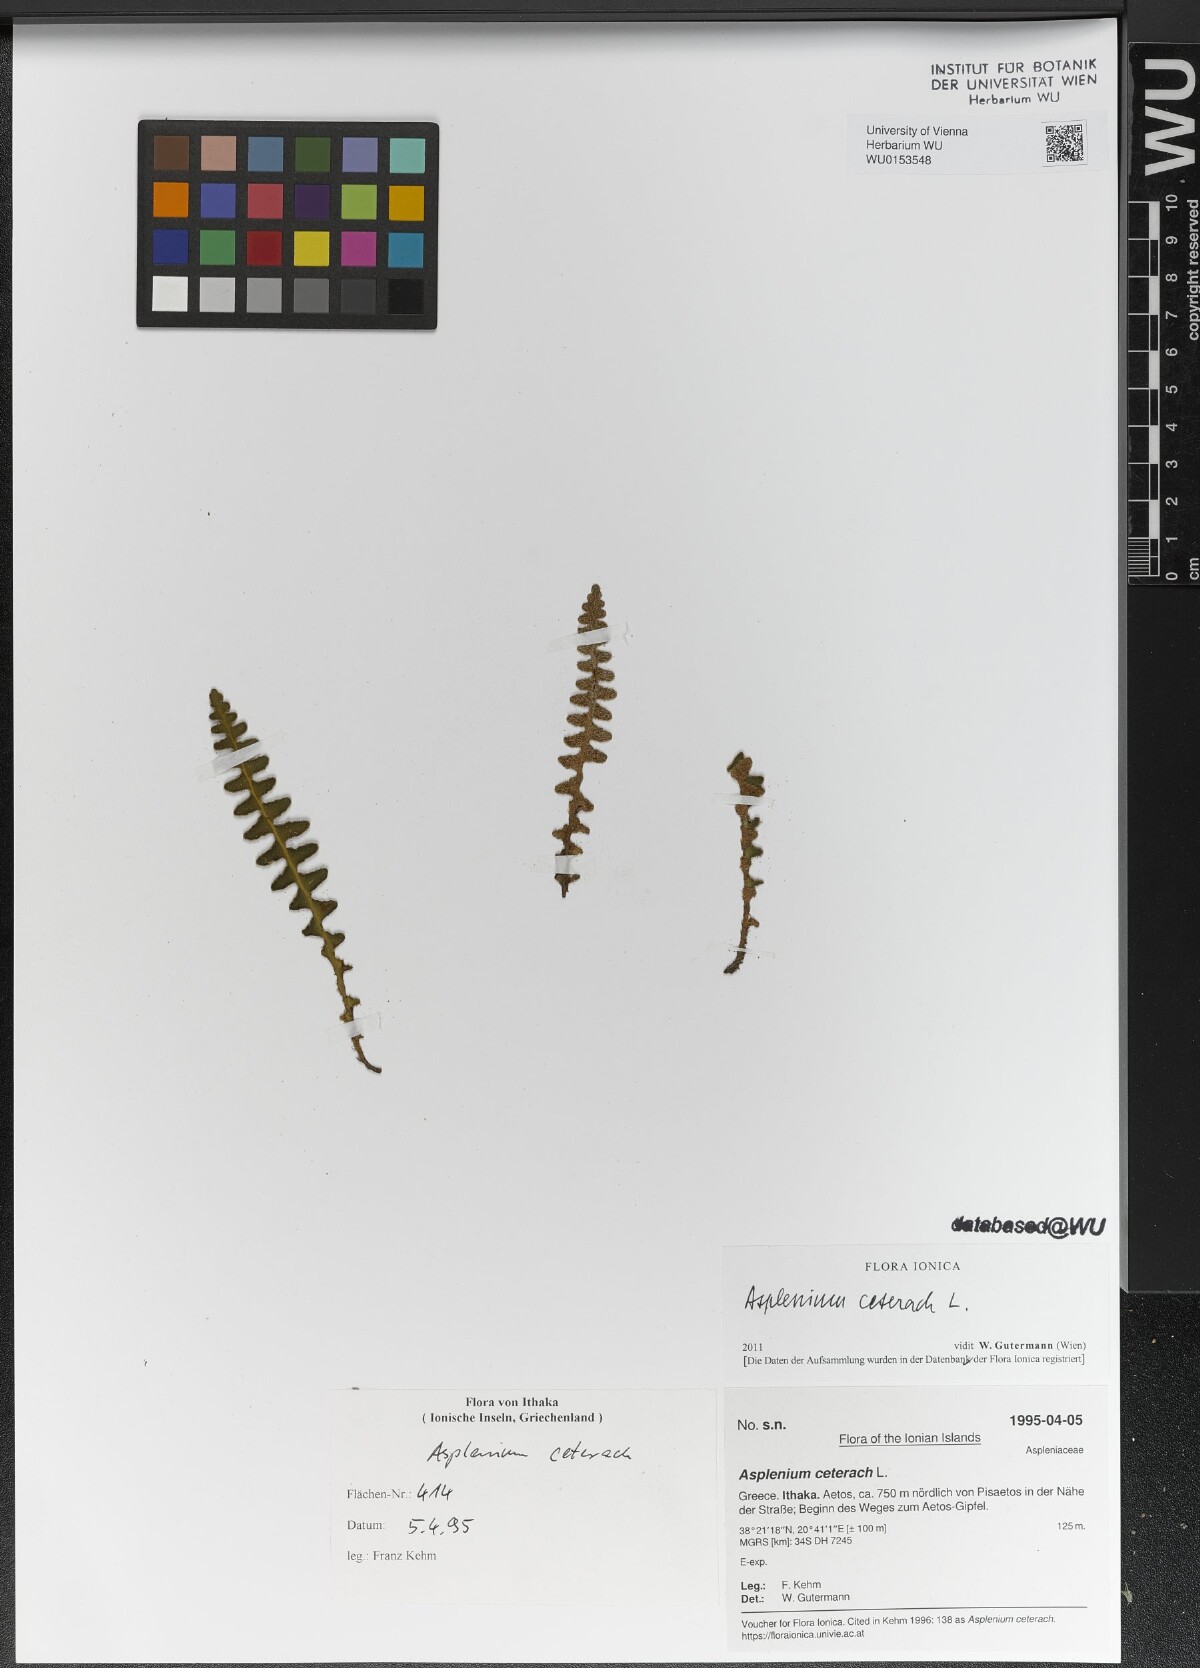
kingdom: Plantae
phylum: Tracheophyta
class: Polypodiopsida
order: Polypodiales
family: Aspleniaceae
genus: Asplenium
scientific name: Asplenium ceterach
